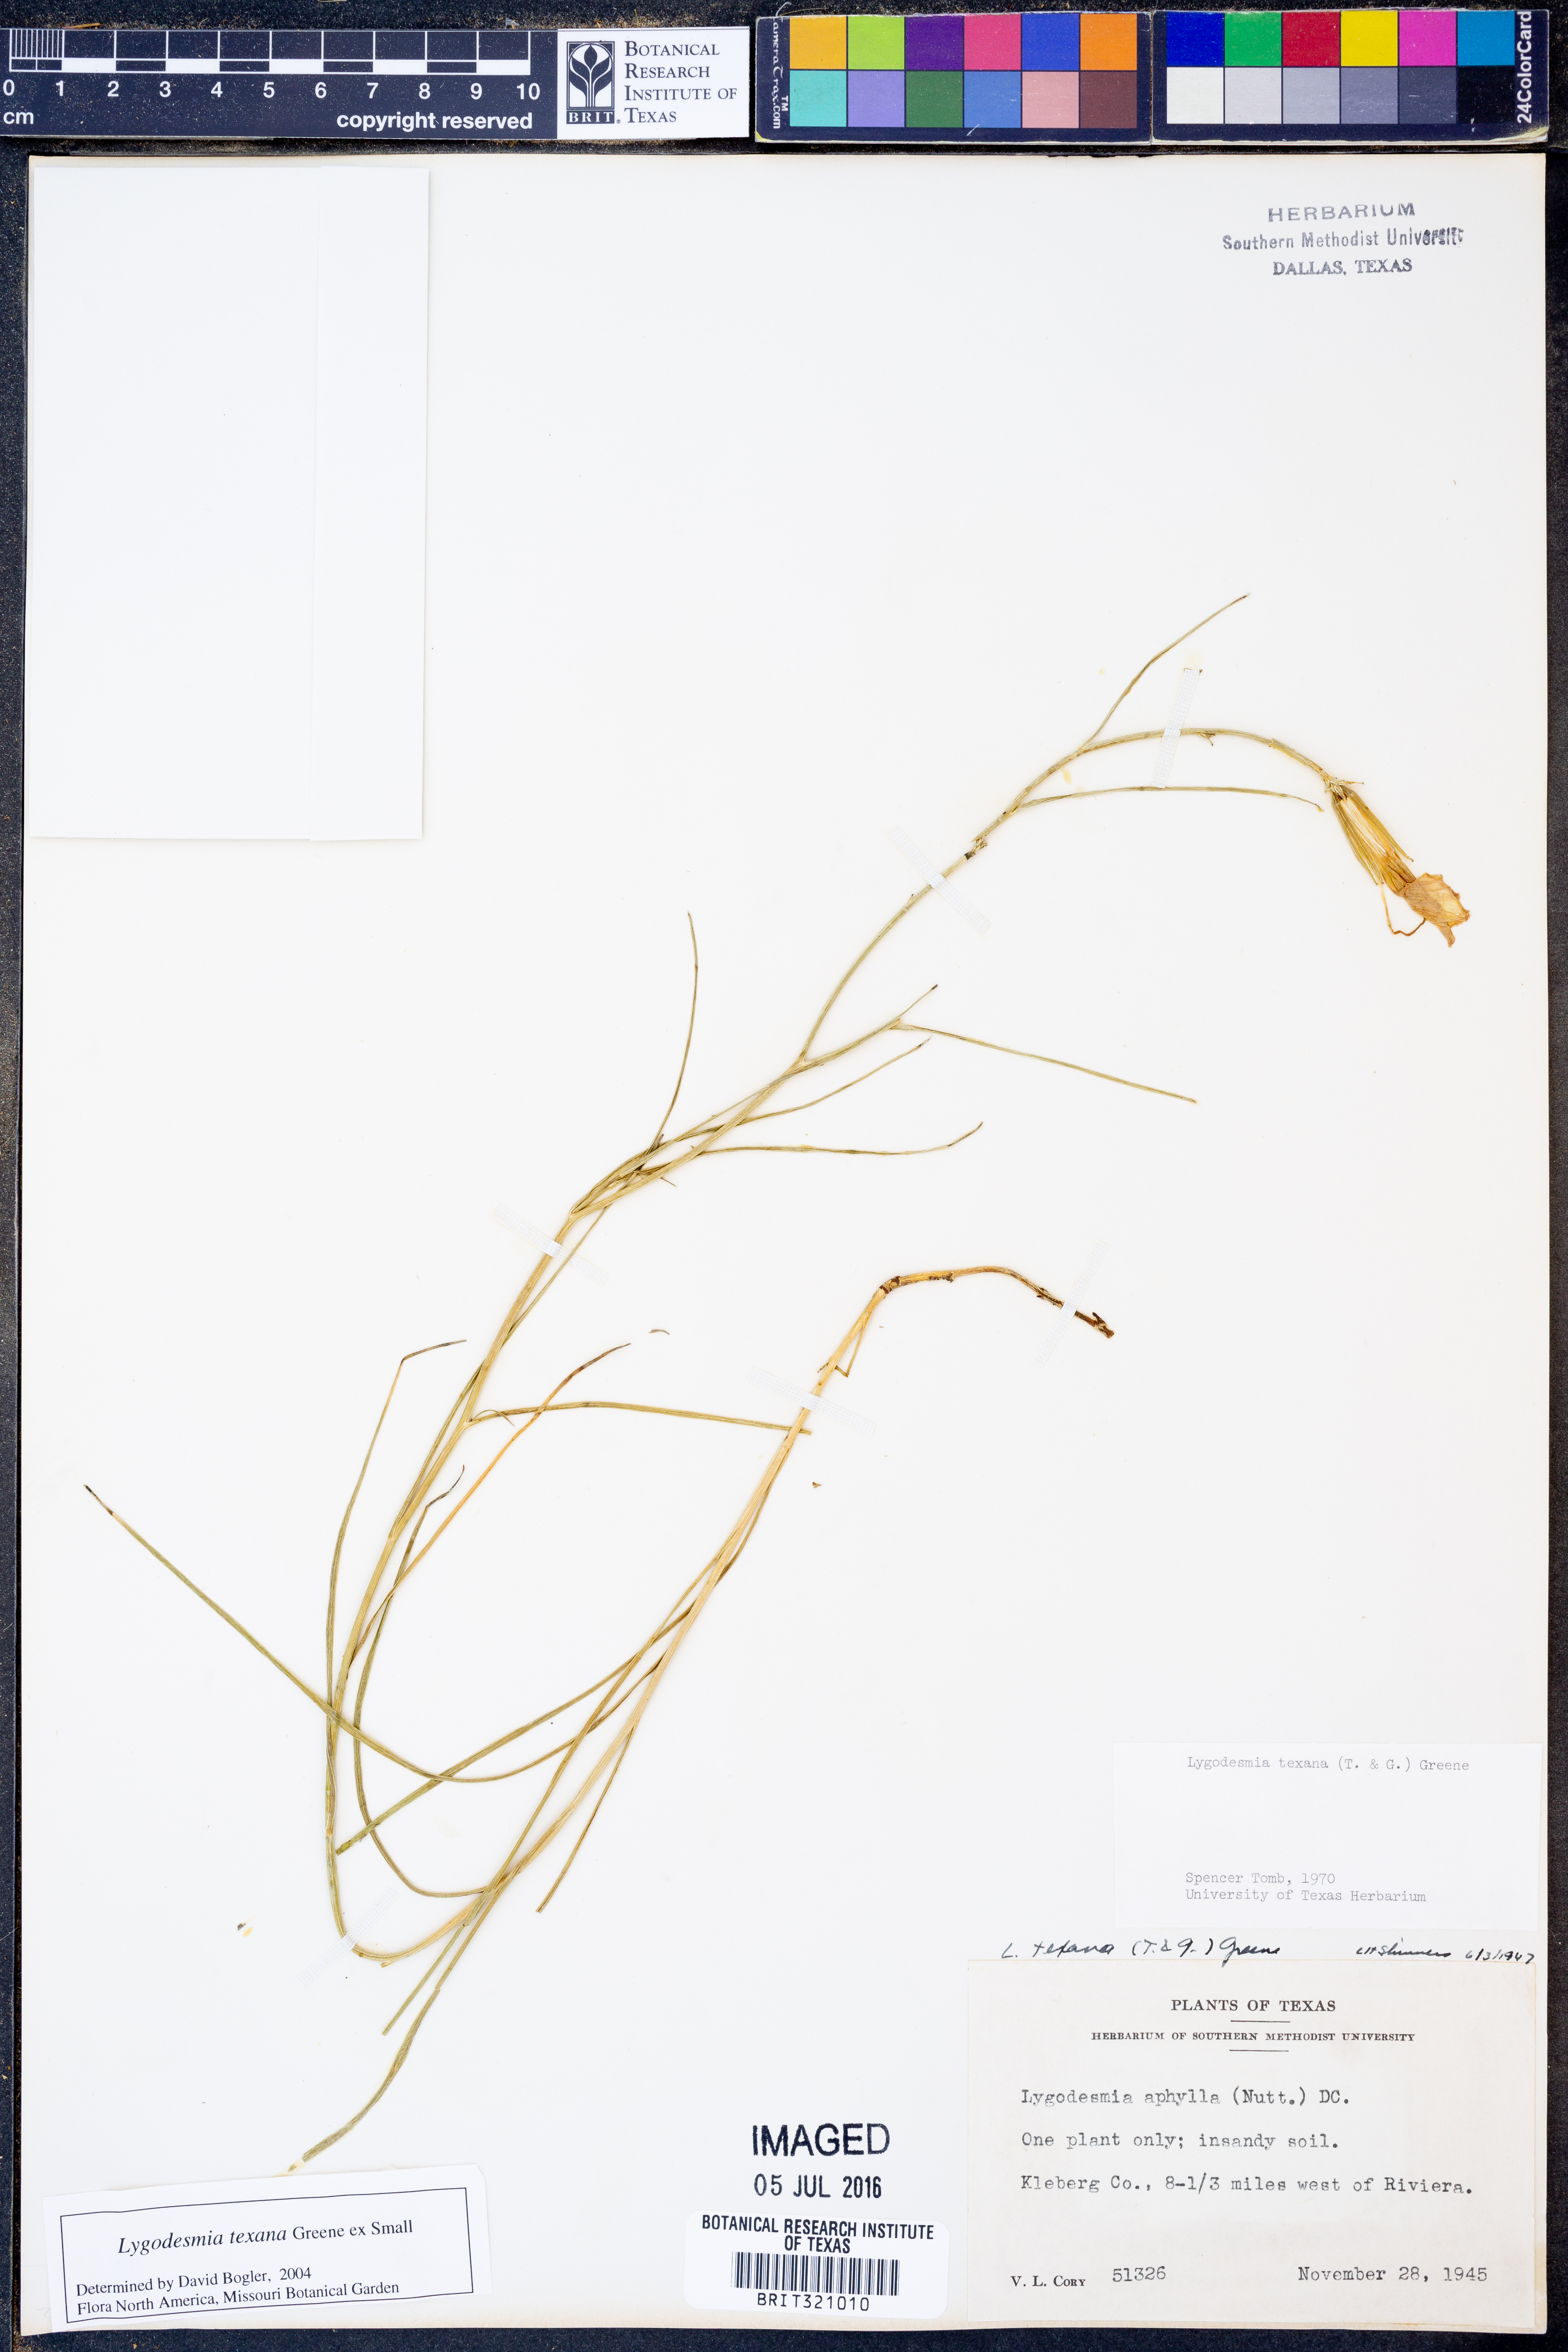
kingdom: Plantae
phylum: Tracheophyta
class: Magnoliopsida
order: Asterales
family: Asteraceae
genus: Lygodesmia
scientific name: Lygodesmia texana
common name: Texas skeleton-plant
